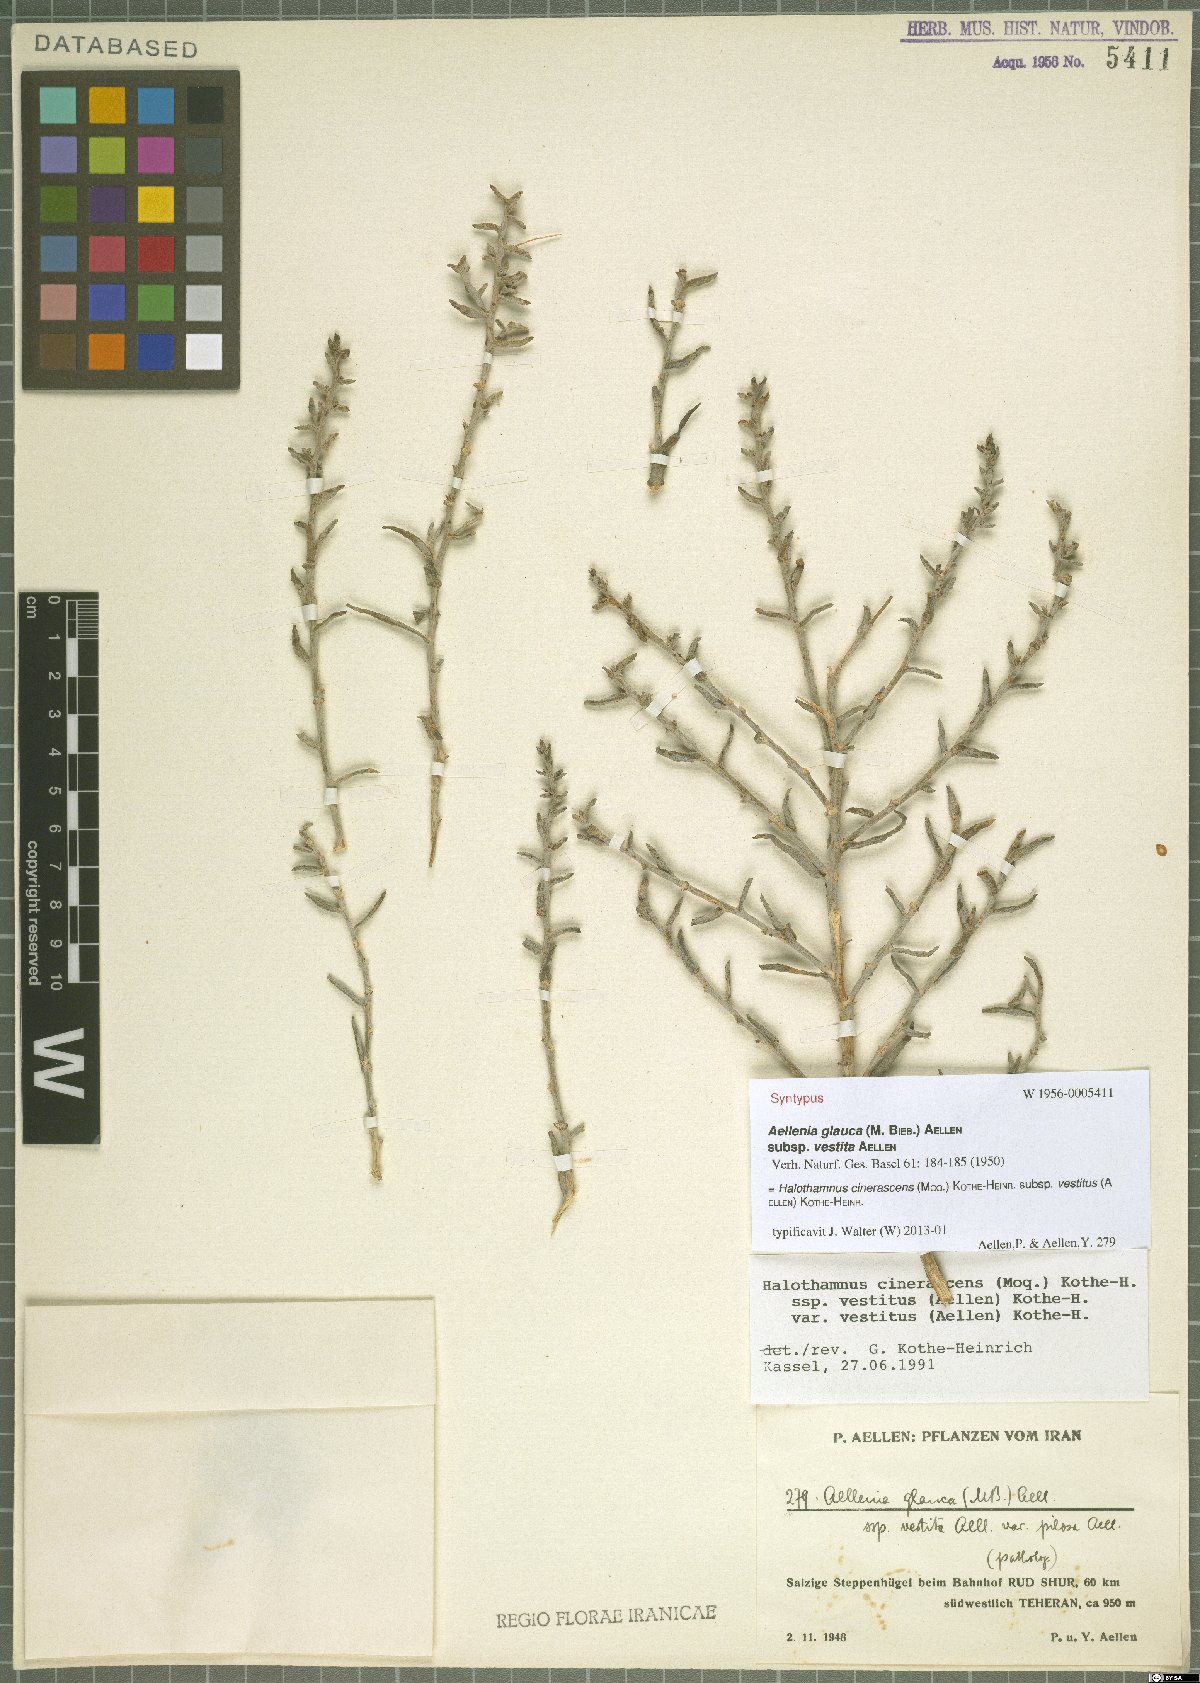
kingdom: Plantae
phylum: Tracheophyta
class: Magnoliopsida
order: Caryophyllales
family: Amaranthaceae
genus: Halothamnus
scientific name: Halothamnus cinerascens
